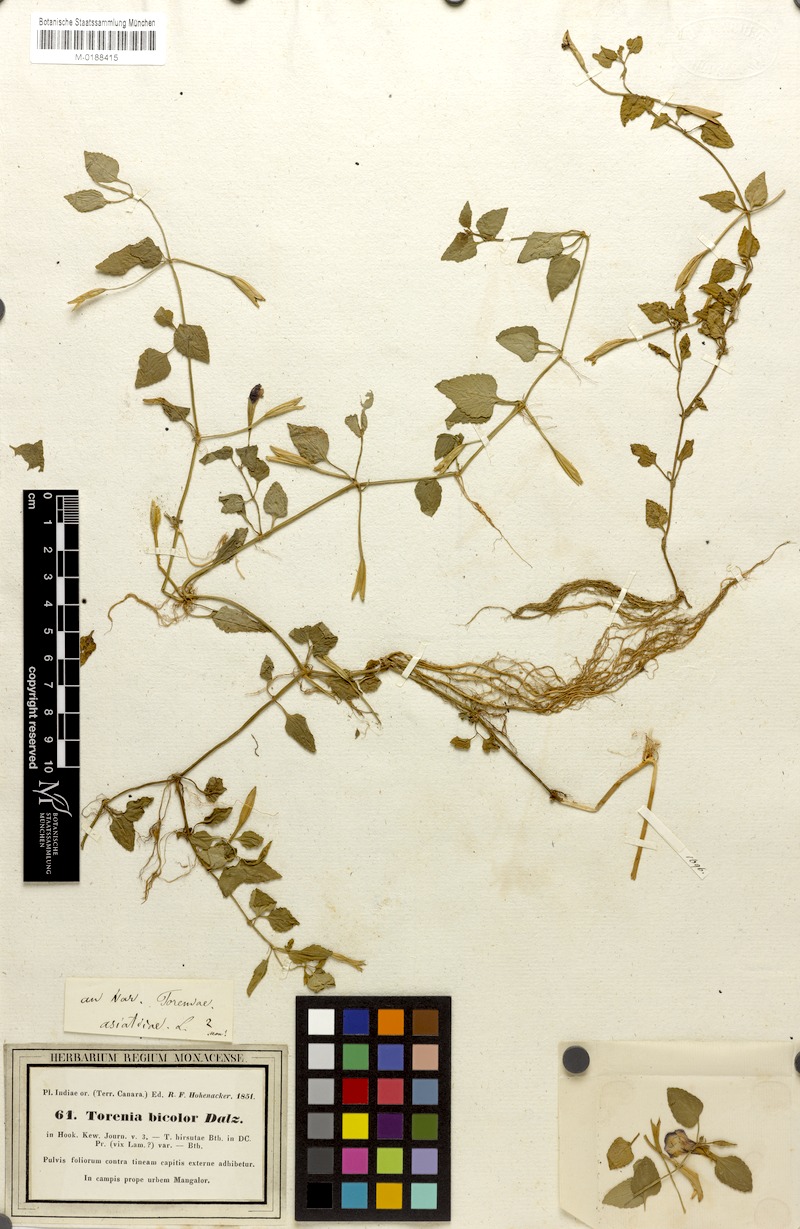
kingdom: Plantae
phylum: Tracheophyta
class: Magnoliopsida
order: Lamiales
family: Linderniaceae
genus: Torenia
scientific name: Torenia bicolor
